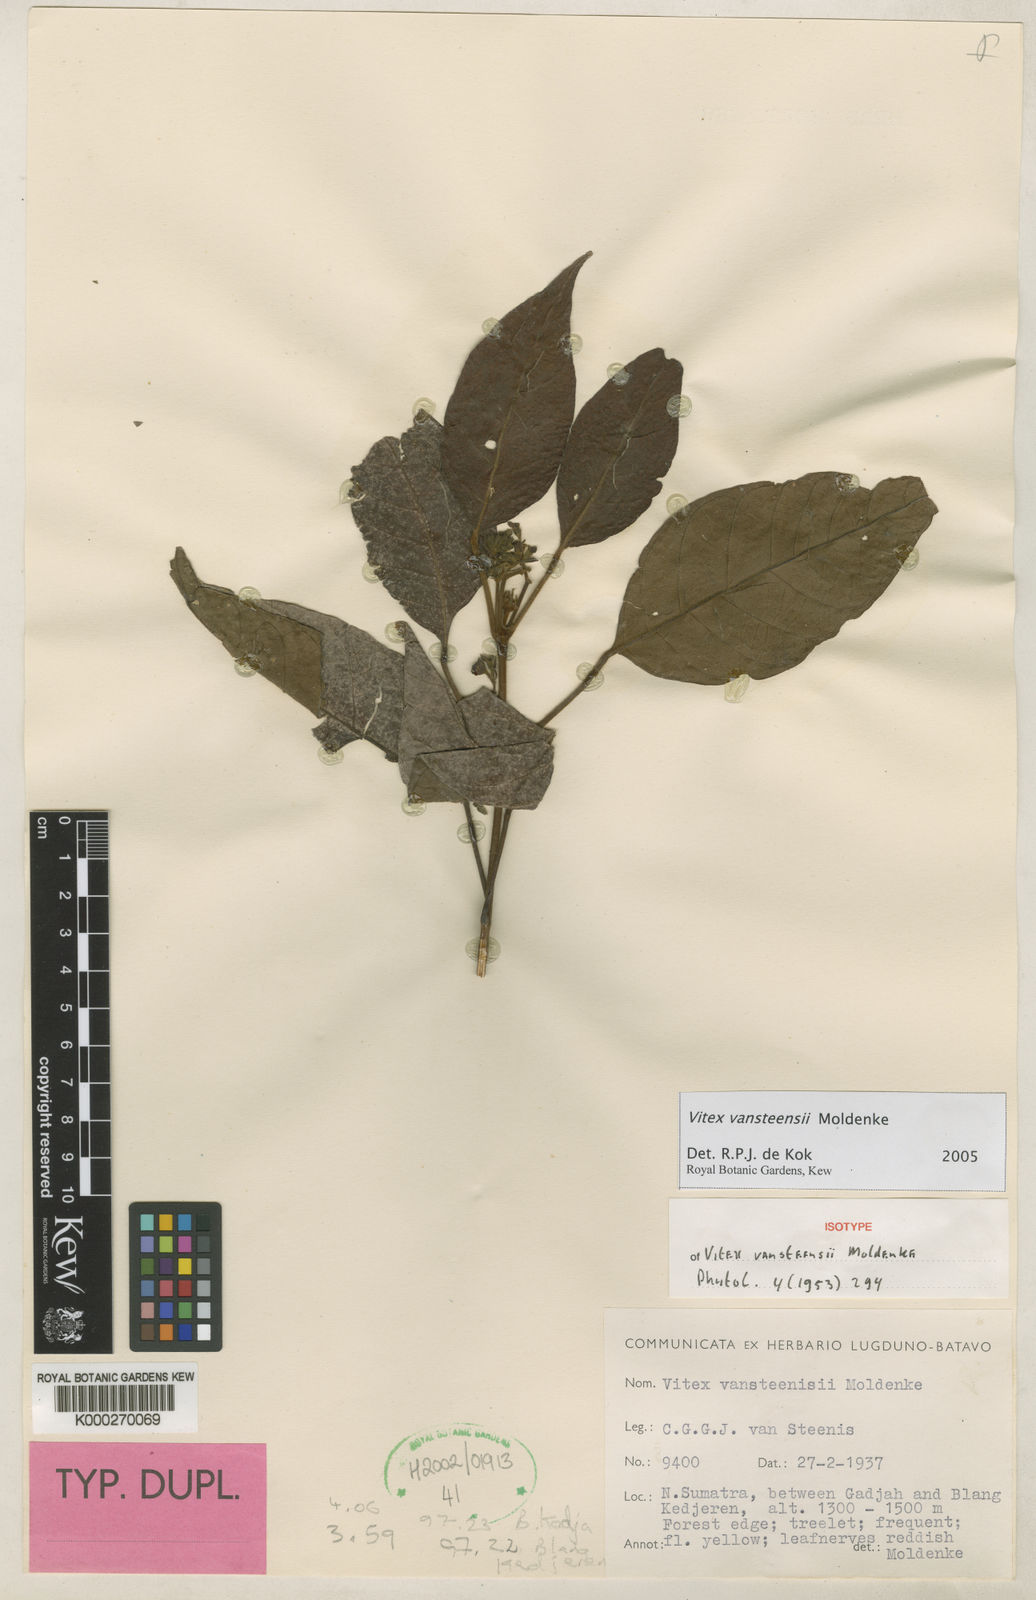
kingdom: Plantae
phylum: Tracheophyta
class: Magnoliopsida
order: Lamiales
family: Lamiaceae
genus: Vitex
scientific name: Vitex vansteenisii
